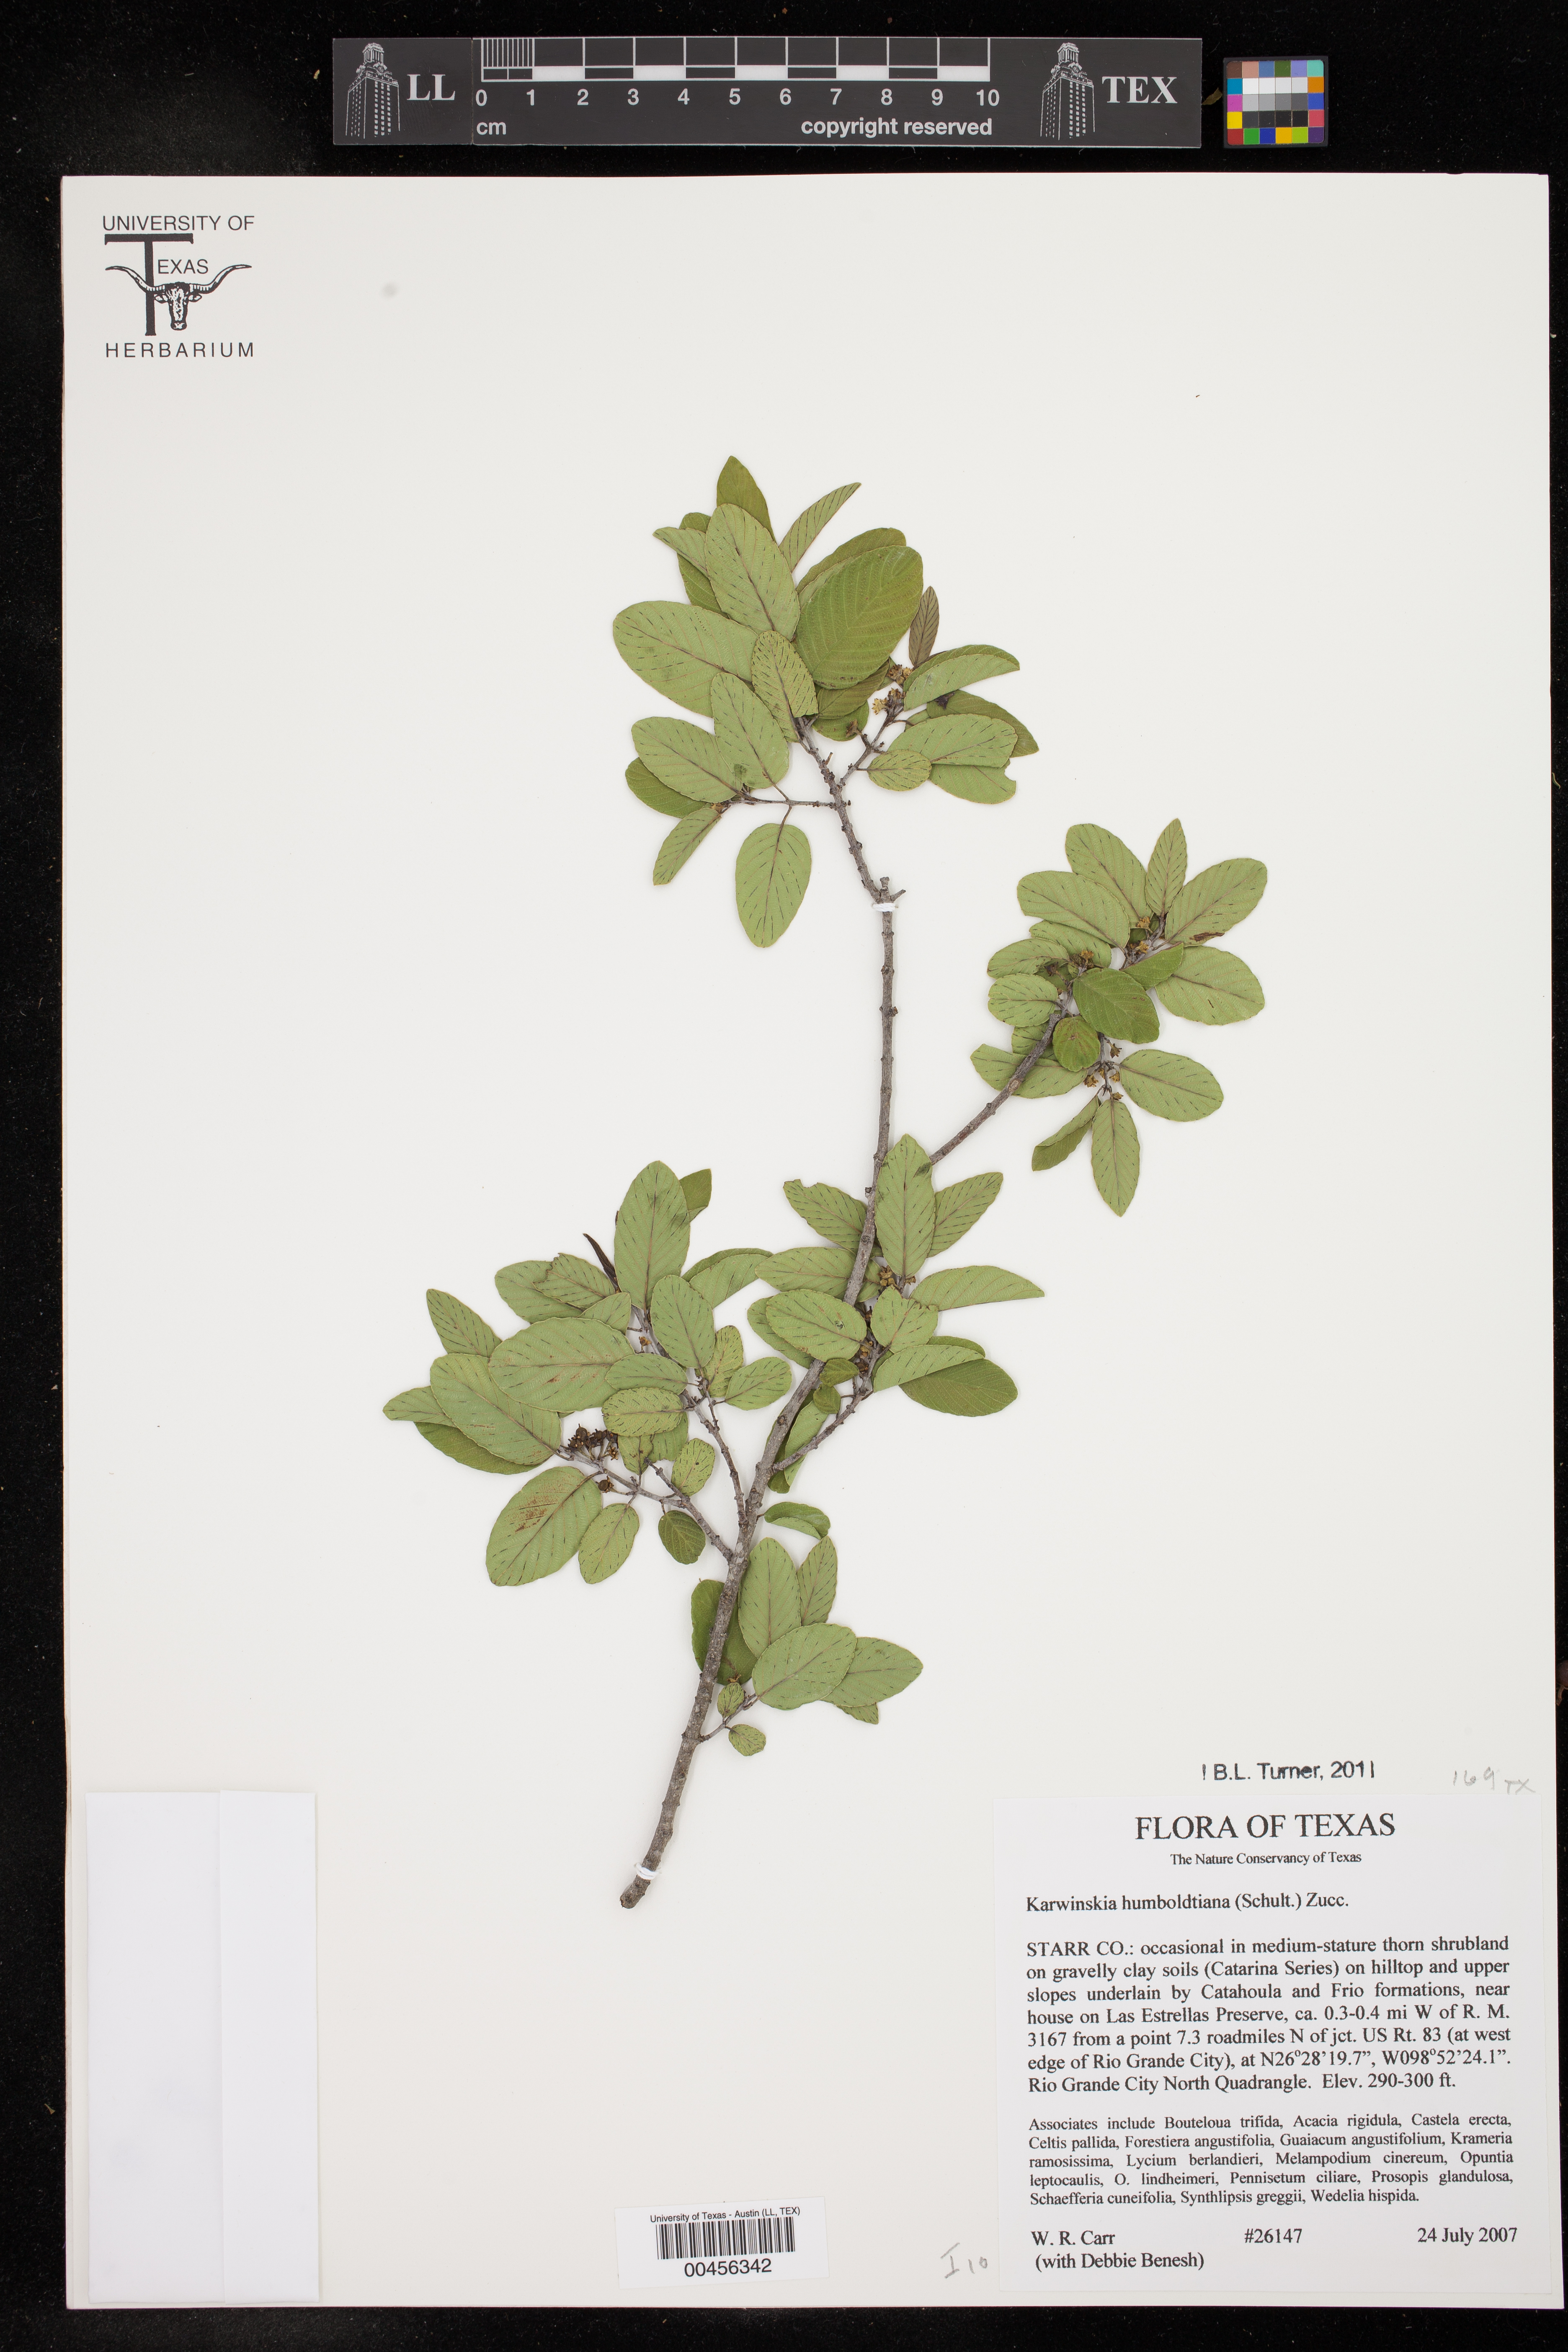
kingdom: Plantae
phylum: Tracheophyta
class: Magnoliopsida
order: Rosales
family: Rhamnaceae
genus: Karwinskia
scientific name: Karwinskia humboldtiana
